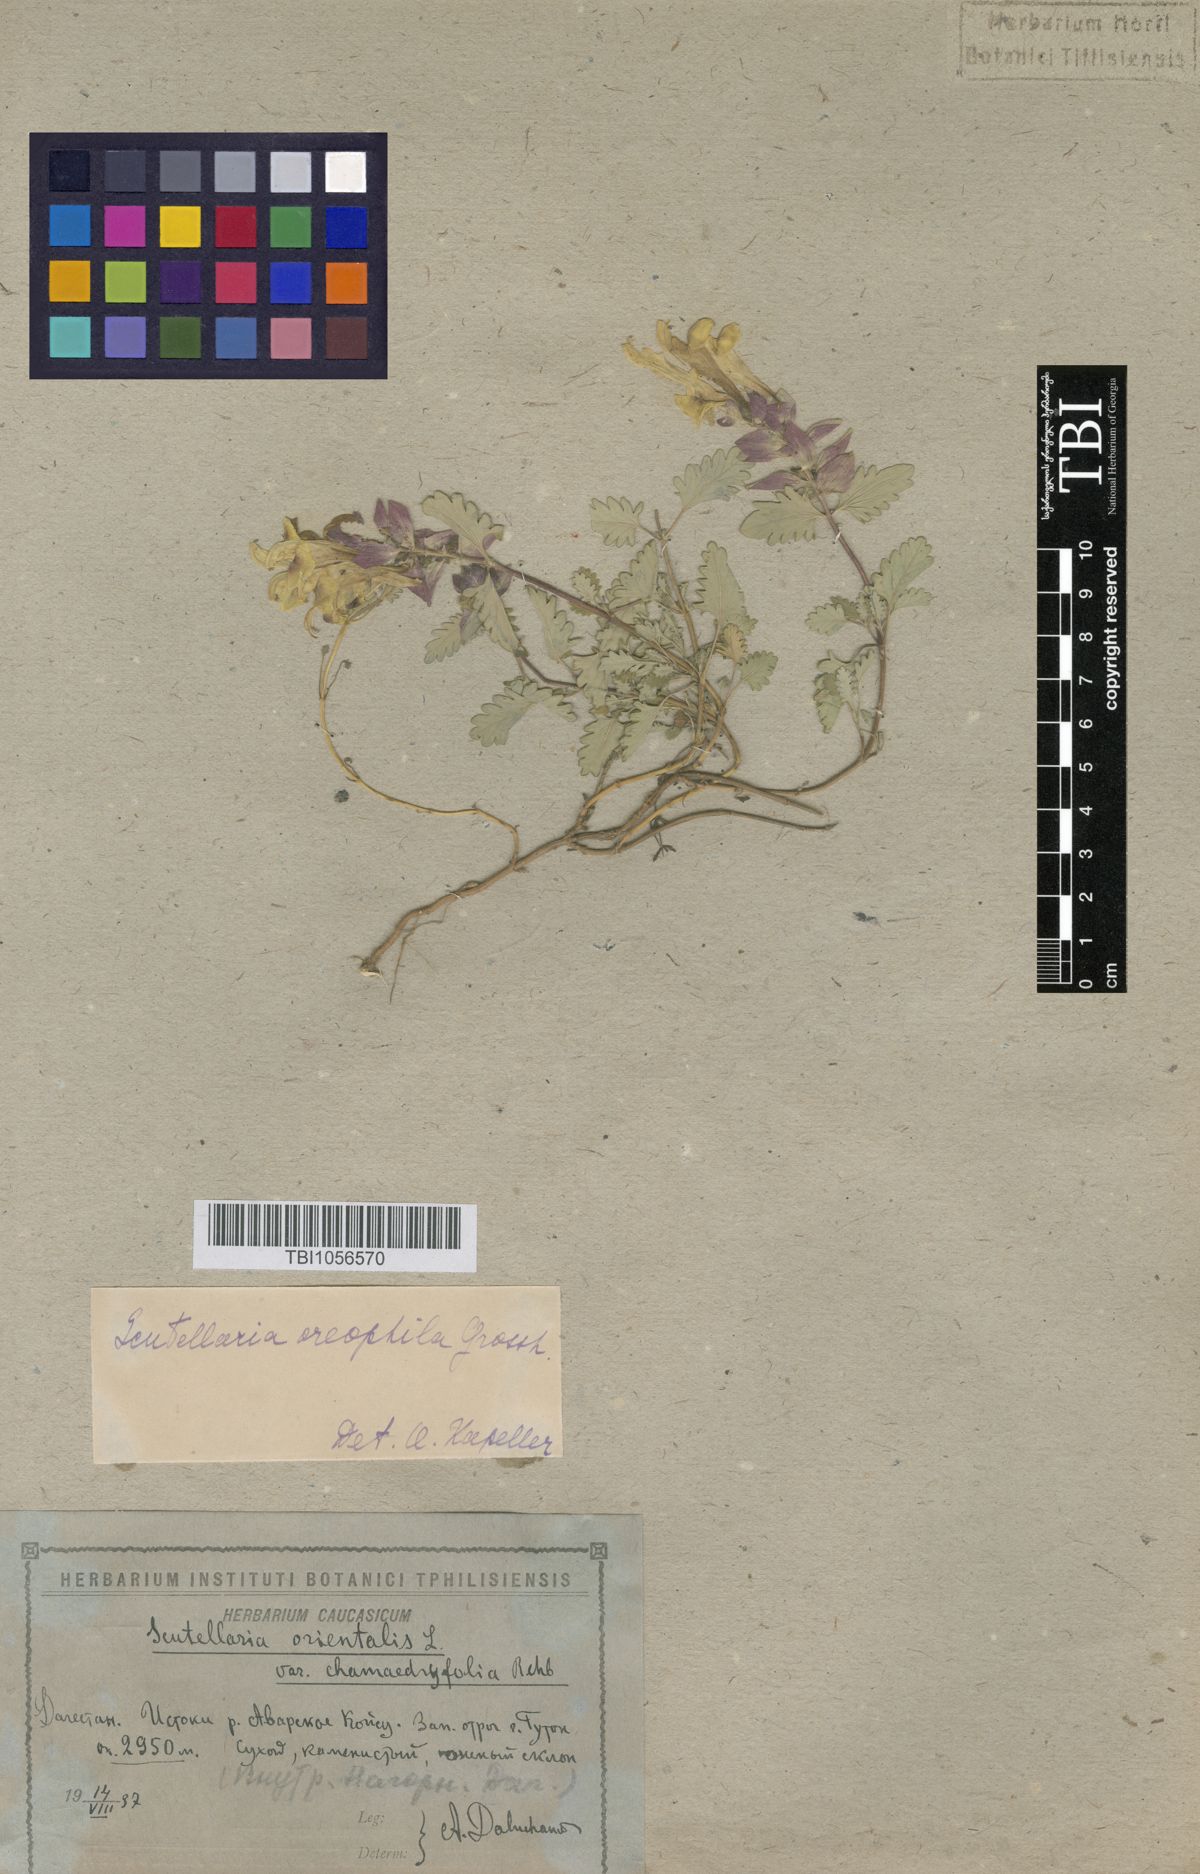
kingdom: Plantae
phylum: Tracheophyta
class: Magnoliopsida
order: Lamiales
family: Lamiaceae
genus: Scutellaria
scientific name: Scutellaria oreophila
